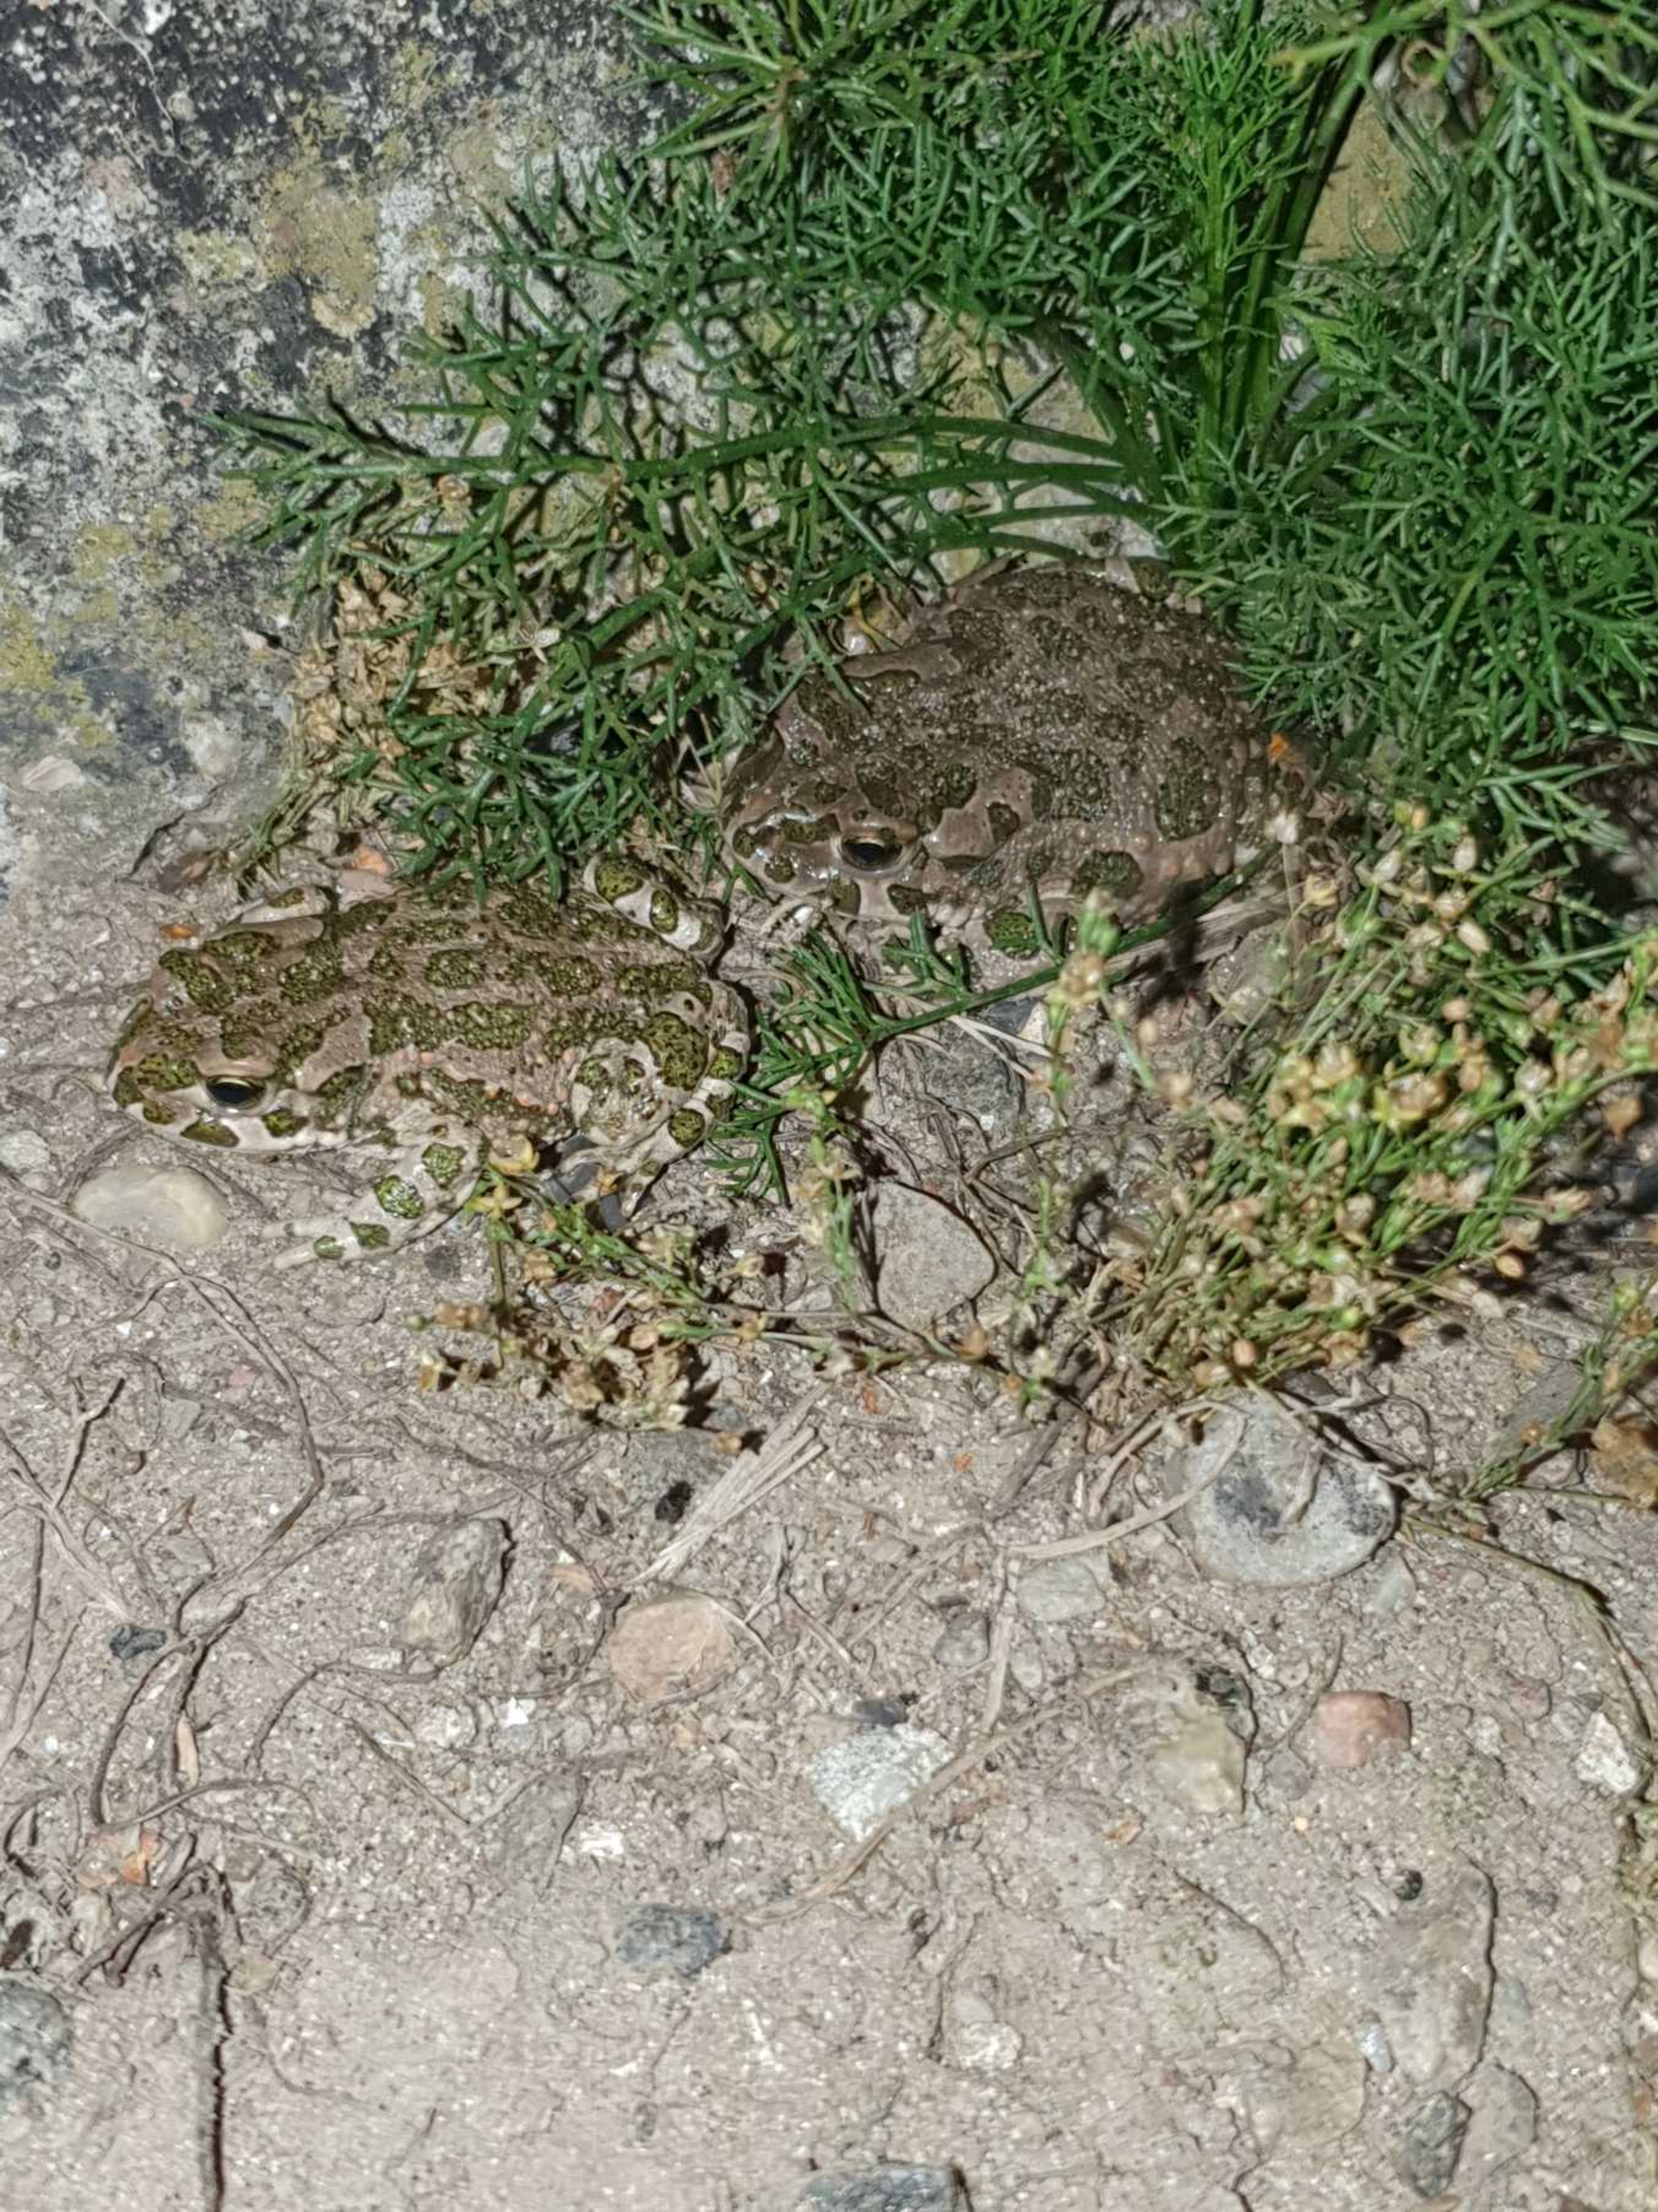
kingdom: Animalia
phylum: Chordata
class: Amphibia
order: Anura
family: Bufonidae
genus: Bufotes
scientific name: Bufotes viridis
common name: Grønbroget tudse
